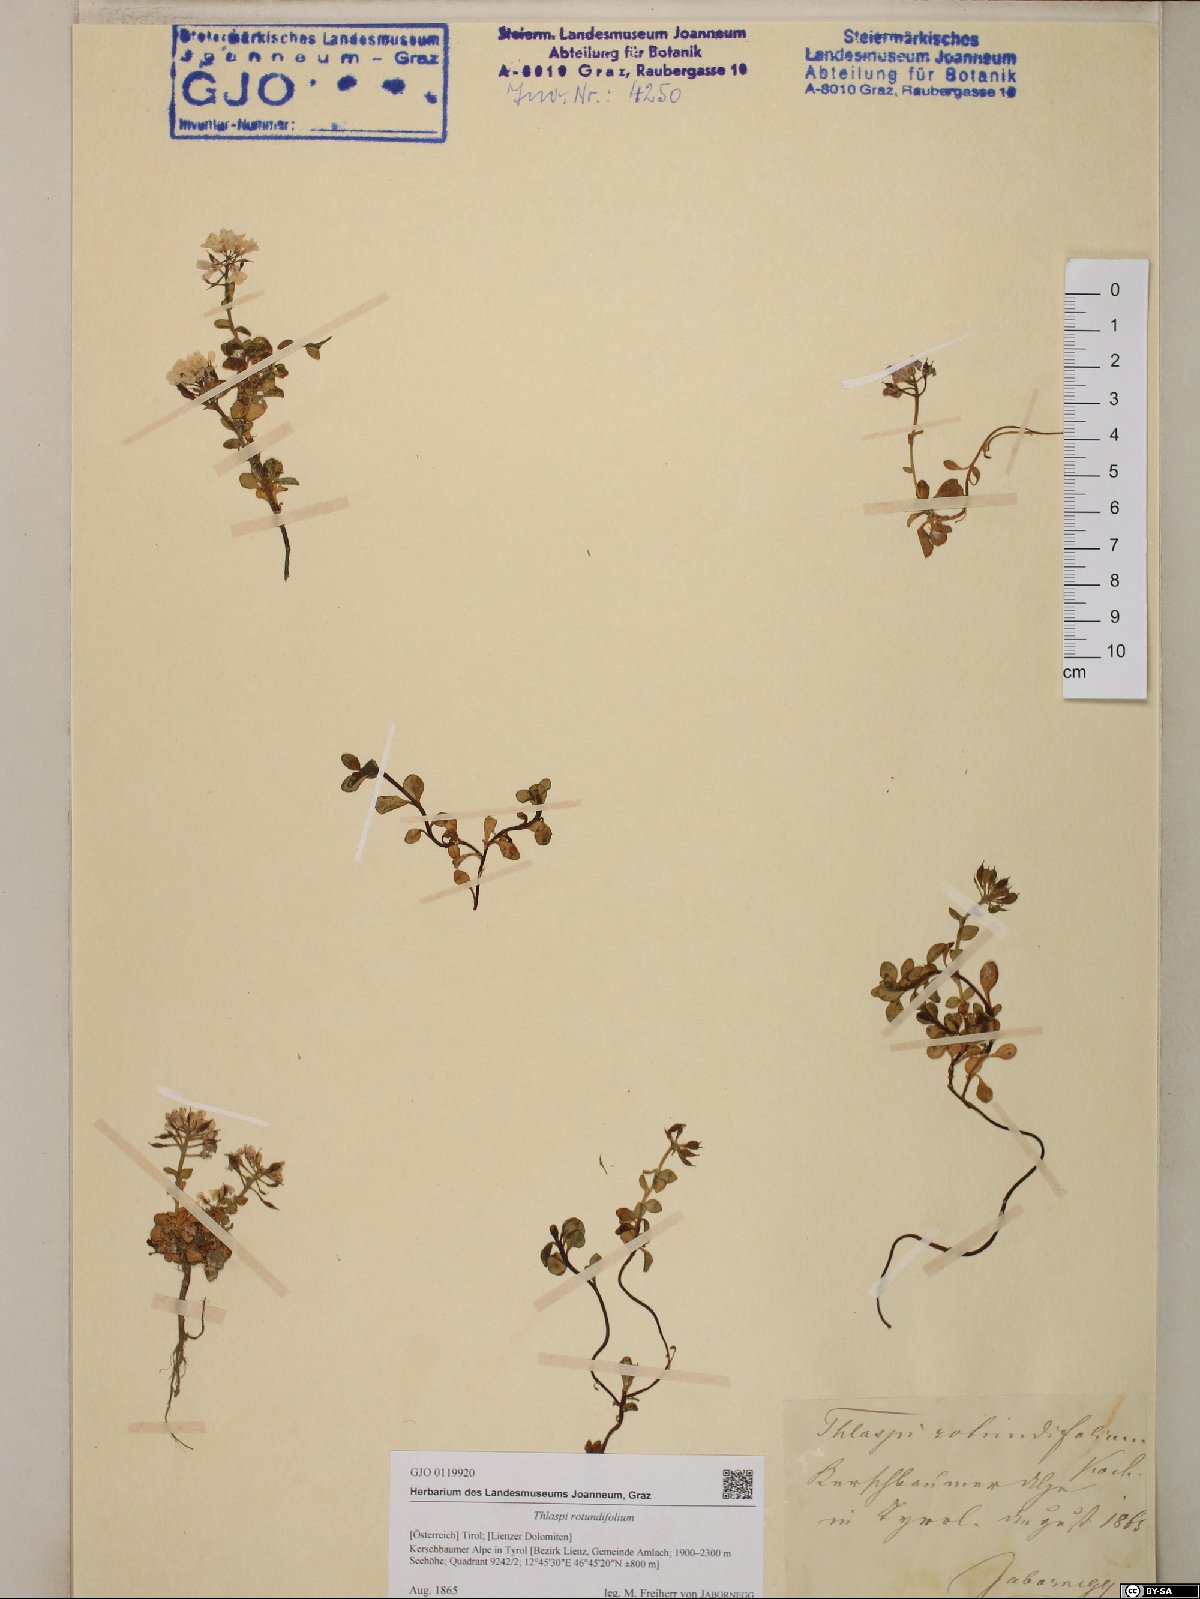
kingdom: Plantae
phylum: Tracheophyta
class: Magnoliopsida
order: Brassicales
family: Brassicaceae
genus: Noccaea
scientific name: Noccaea rotundifolia
